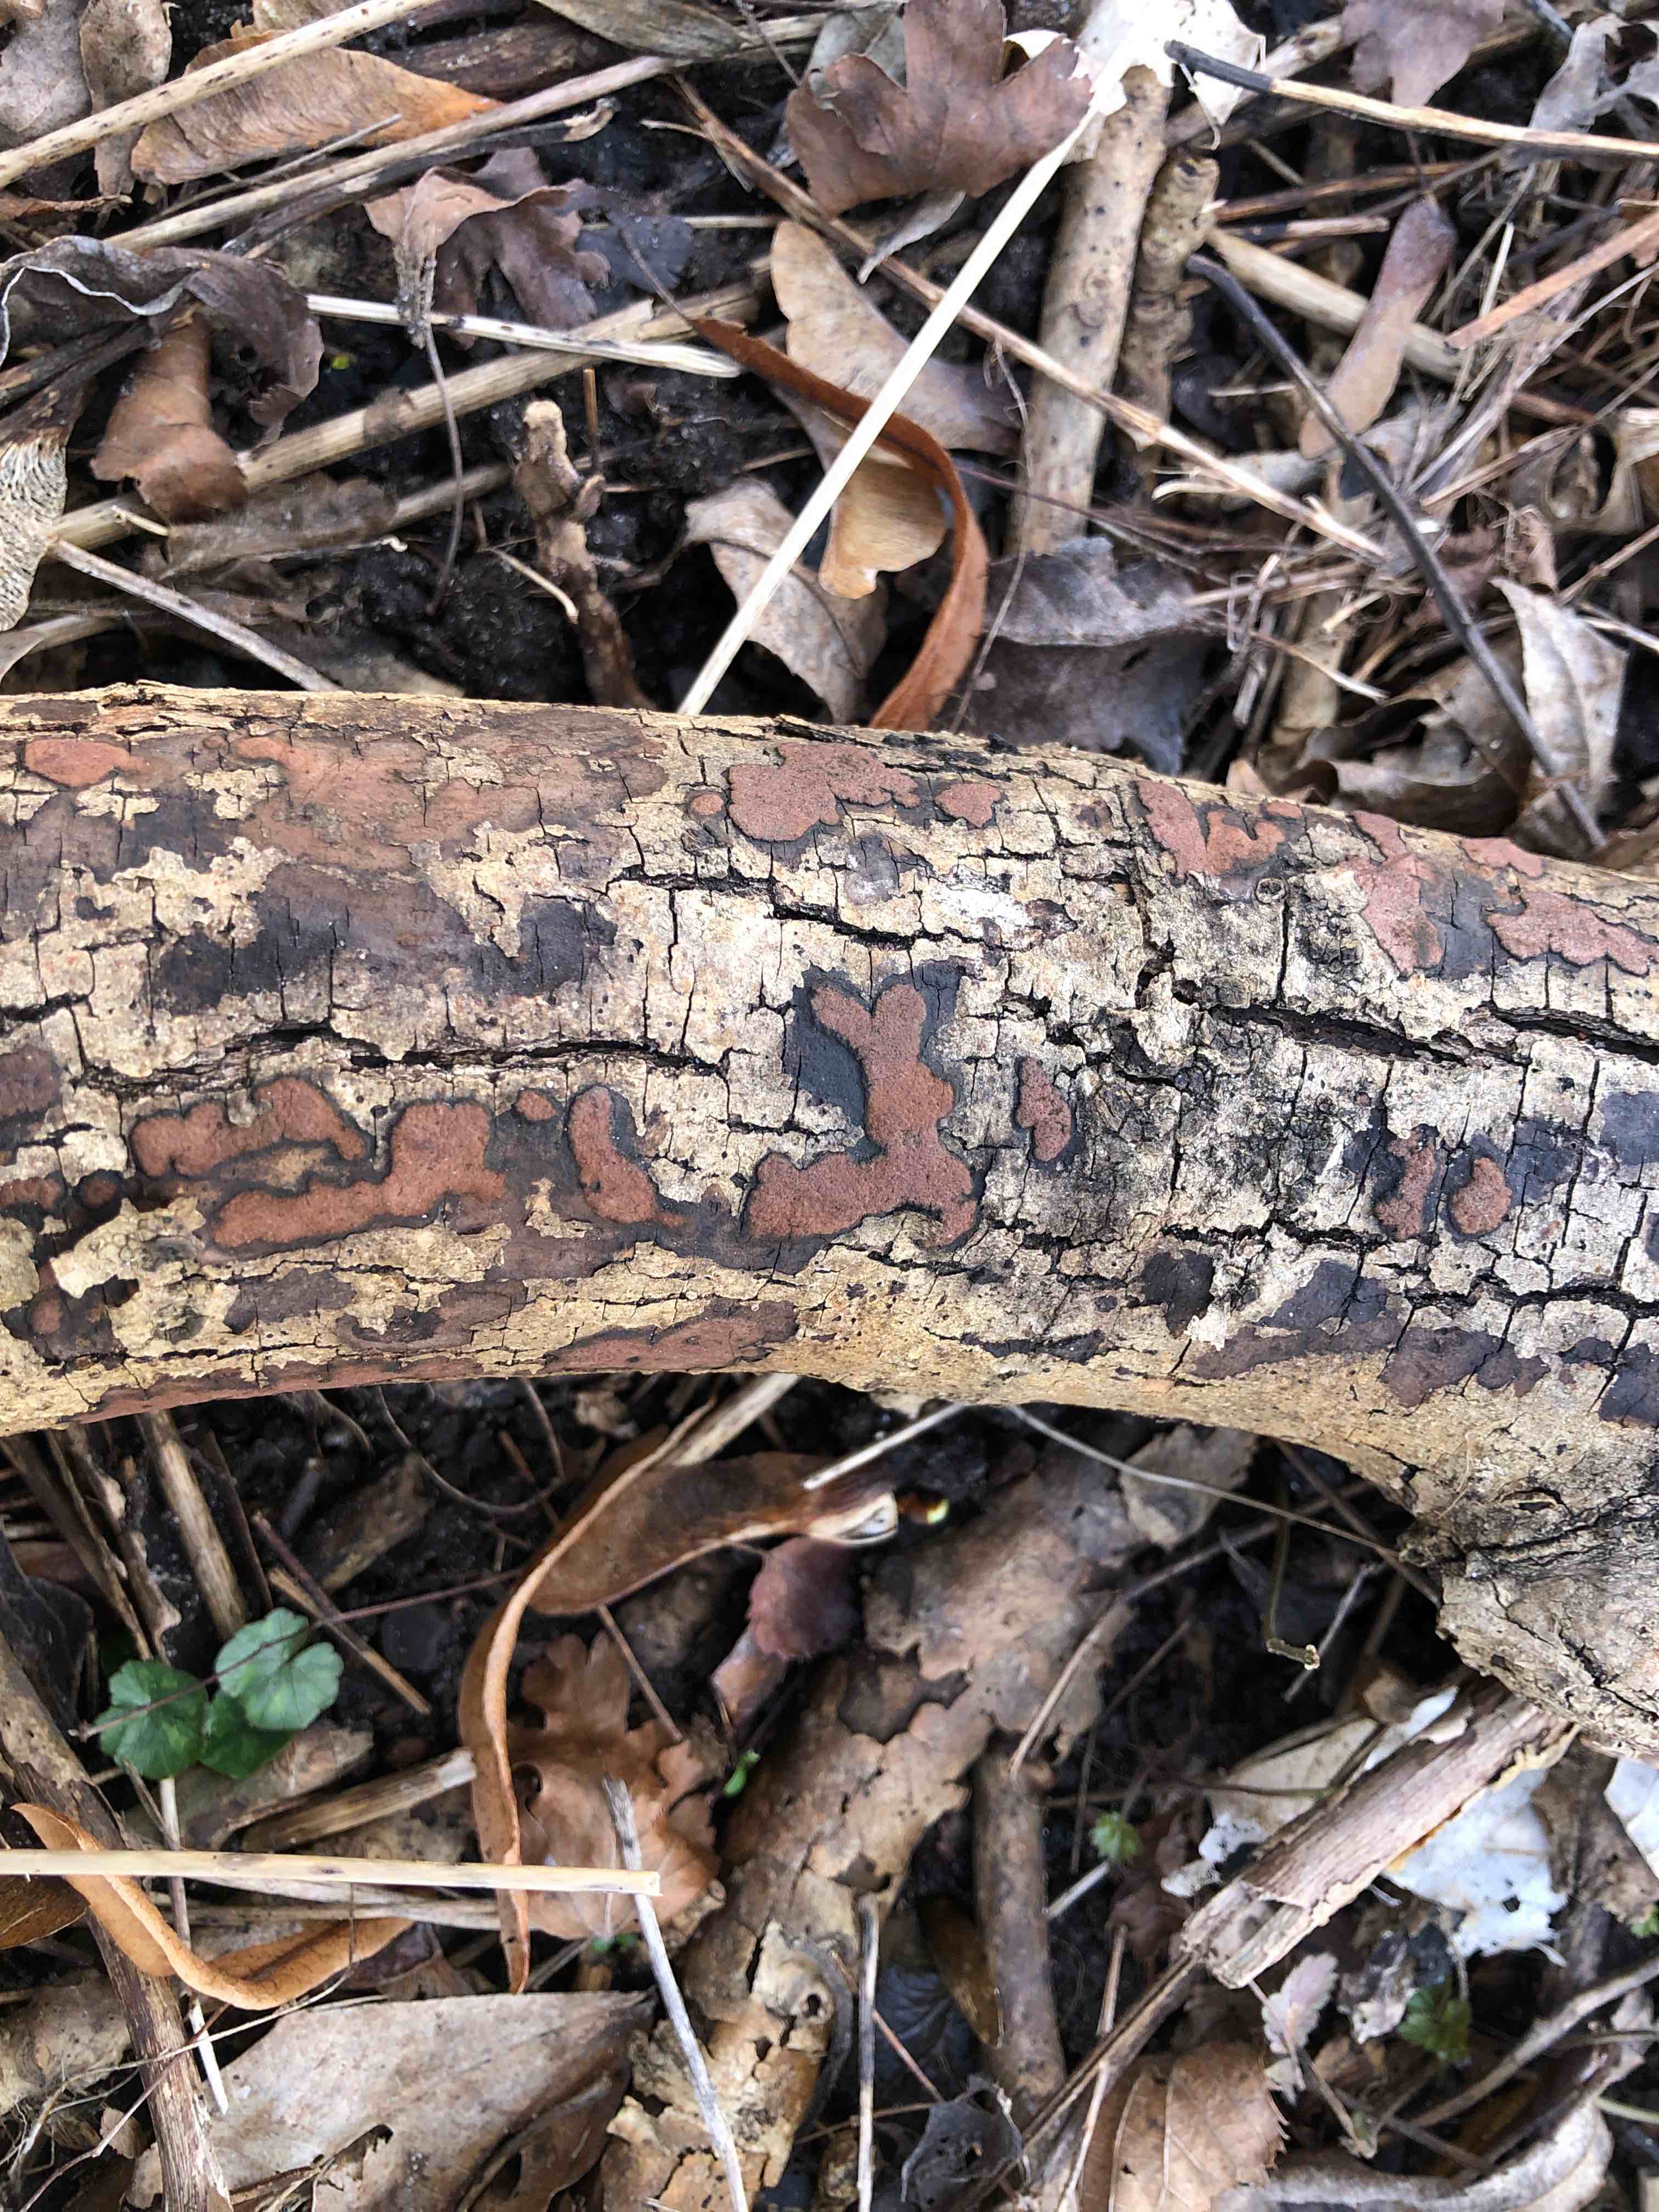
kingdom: Fungi
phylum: Ascomycota
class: Sordariomycetes
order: Xylariales
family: Hypoxylaceae
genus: Hypoxylon
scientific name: Hypoxylon petriniae
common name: nedsænket kulbær
